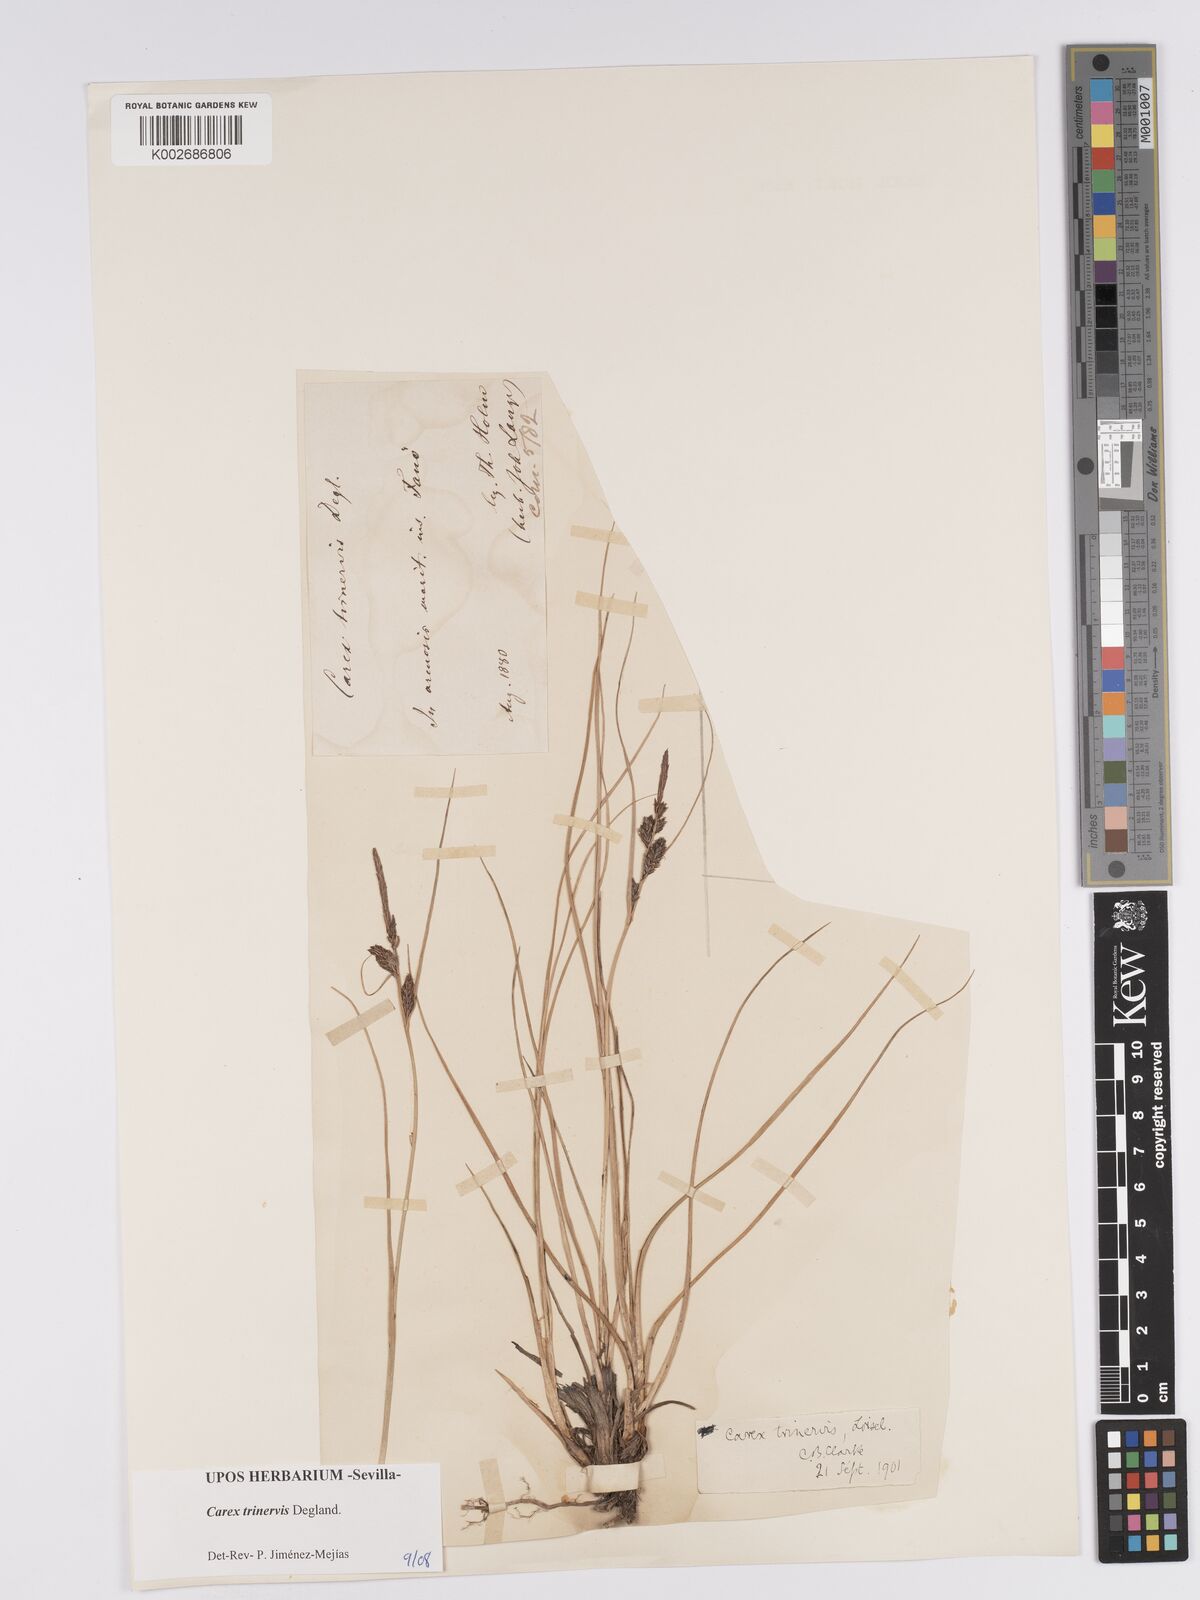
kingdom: Plantae
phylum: Tracheophyta
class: Liliopsida
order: Poales
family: Cyperaceae
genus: Carex
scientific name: Carex trinervis
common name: Three-nerved sedge
